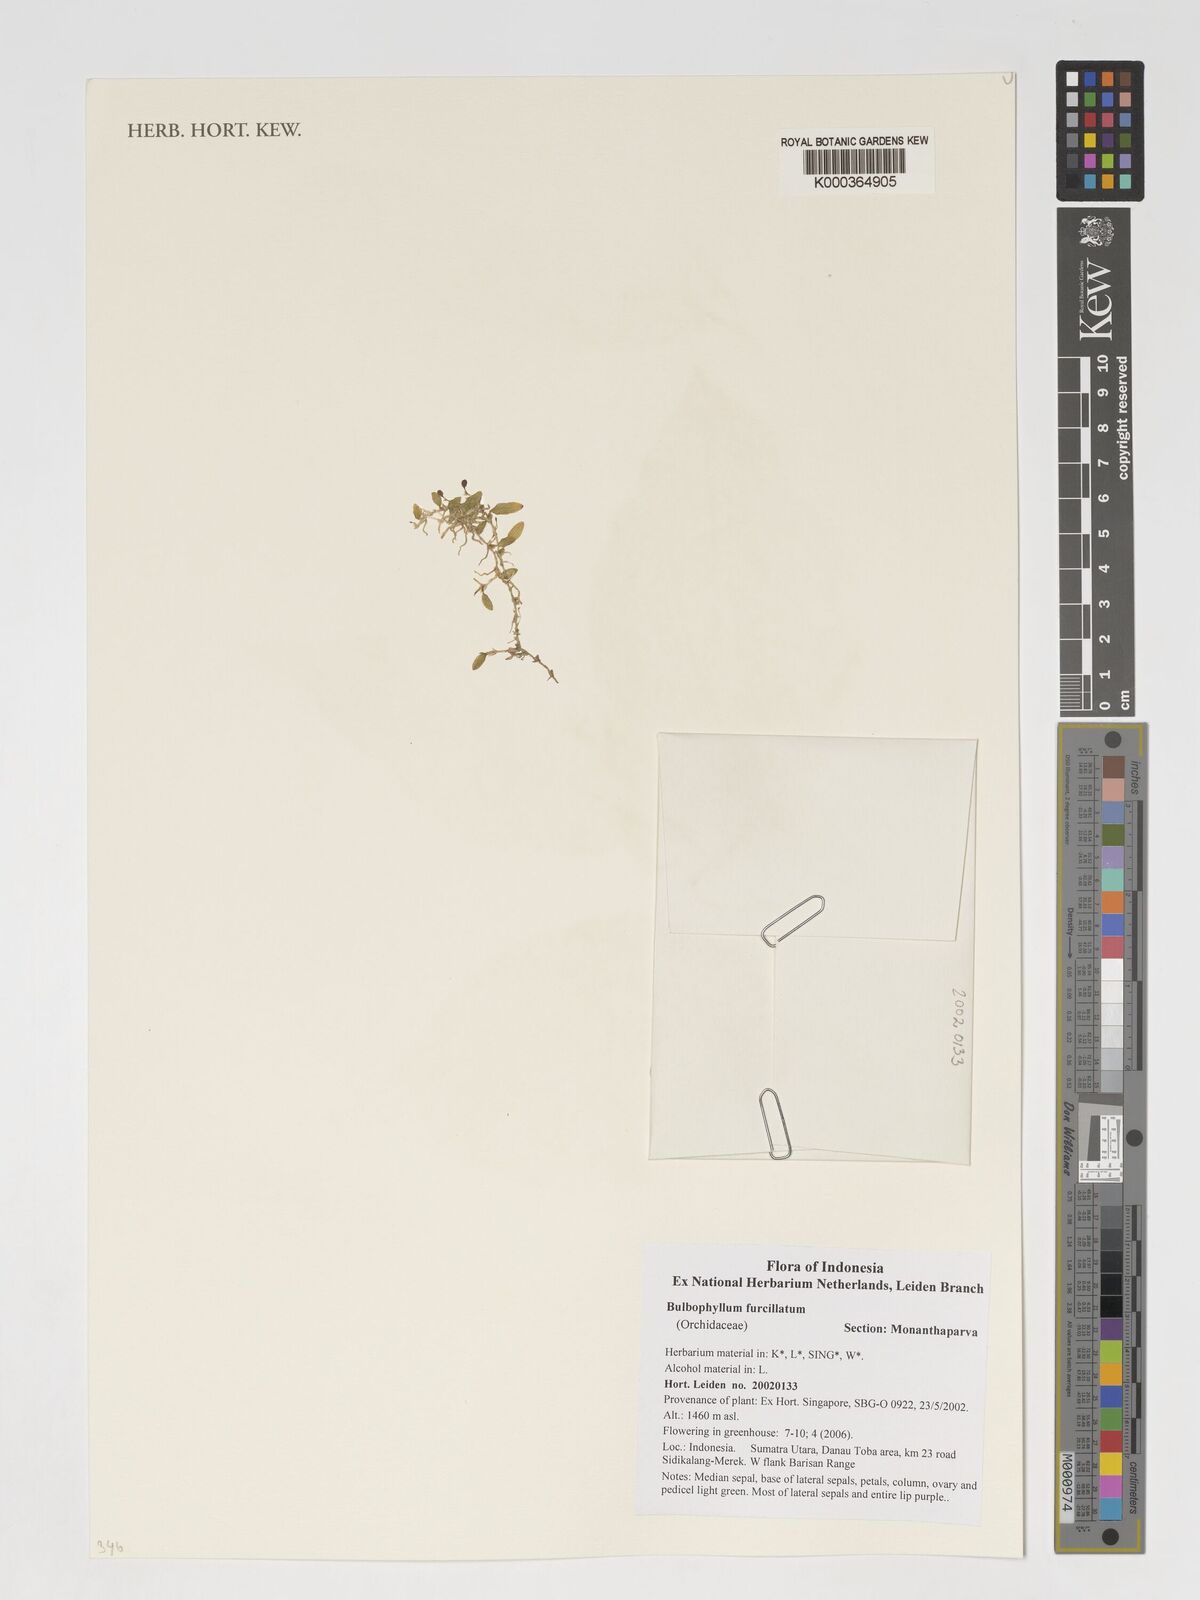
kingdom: Plantae
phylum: Tracheophyta
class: Liliopsida
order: Asparagales
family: Orchidaceae
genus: Bulbophyllum
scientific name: Bulbophyllum furcillatum
